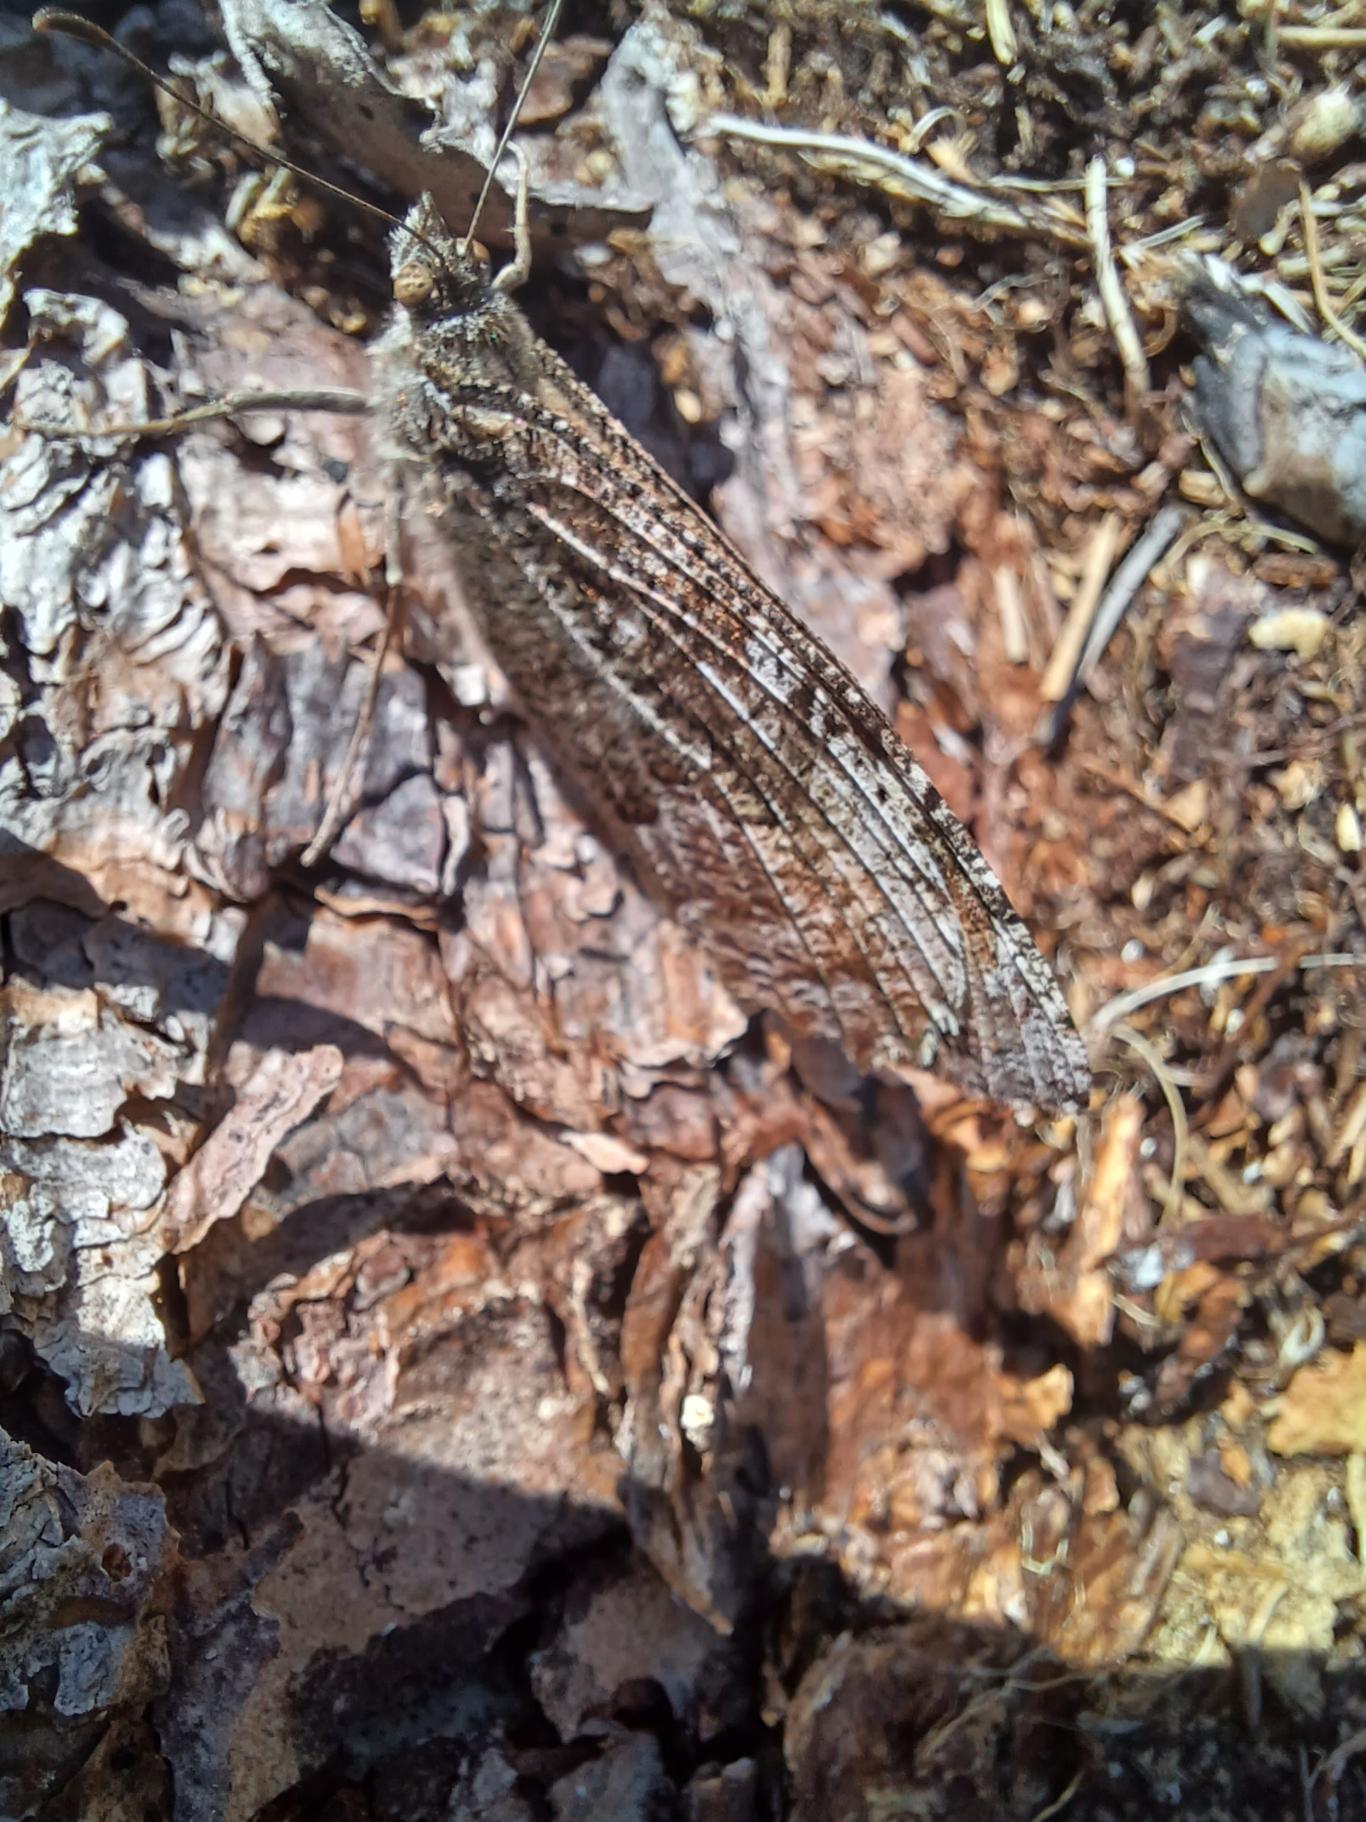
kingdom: Animalia
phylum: Arthropoda
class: Insecta
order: Lepidoptera
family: Nymphalidae
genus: Hipparchia
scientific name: Hipparchia semele
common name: Sandrandøje
